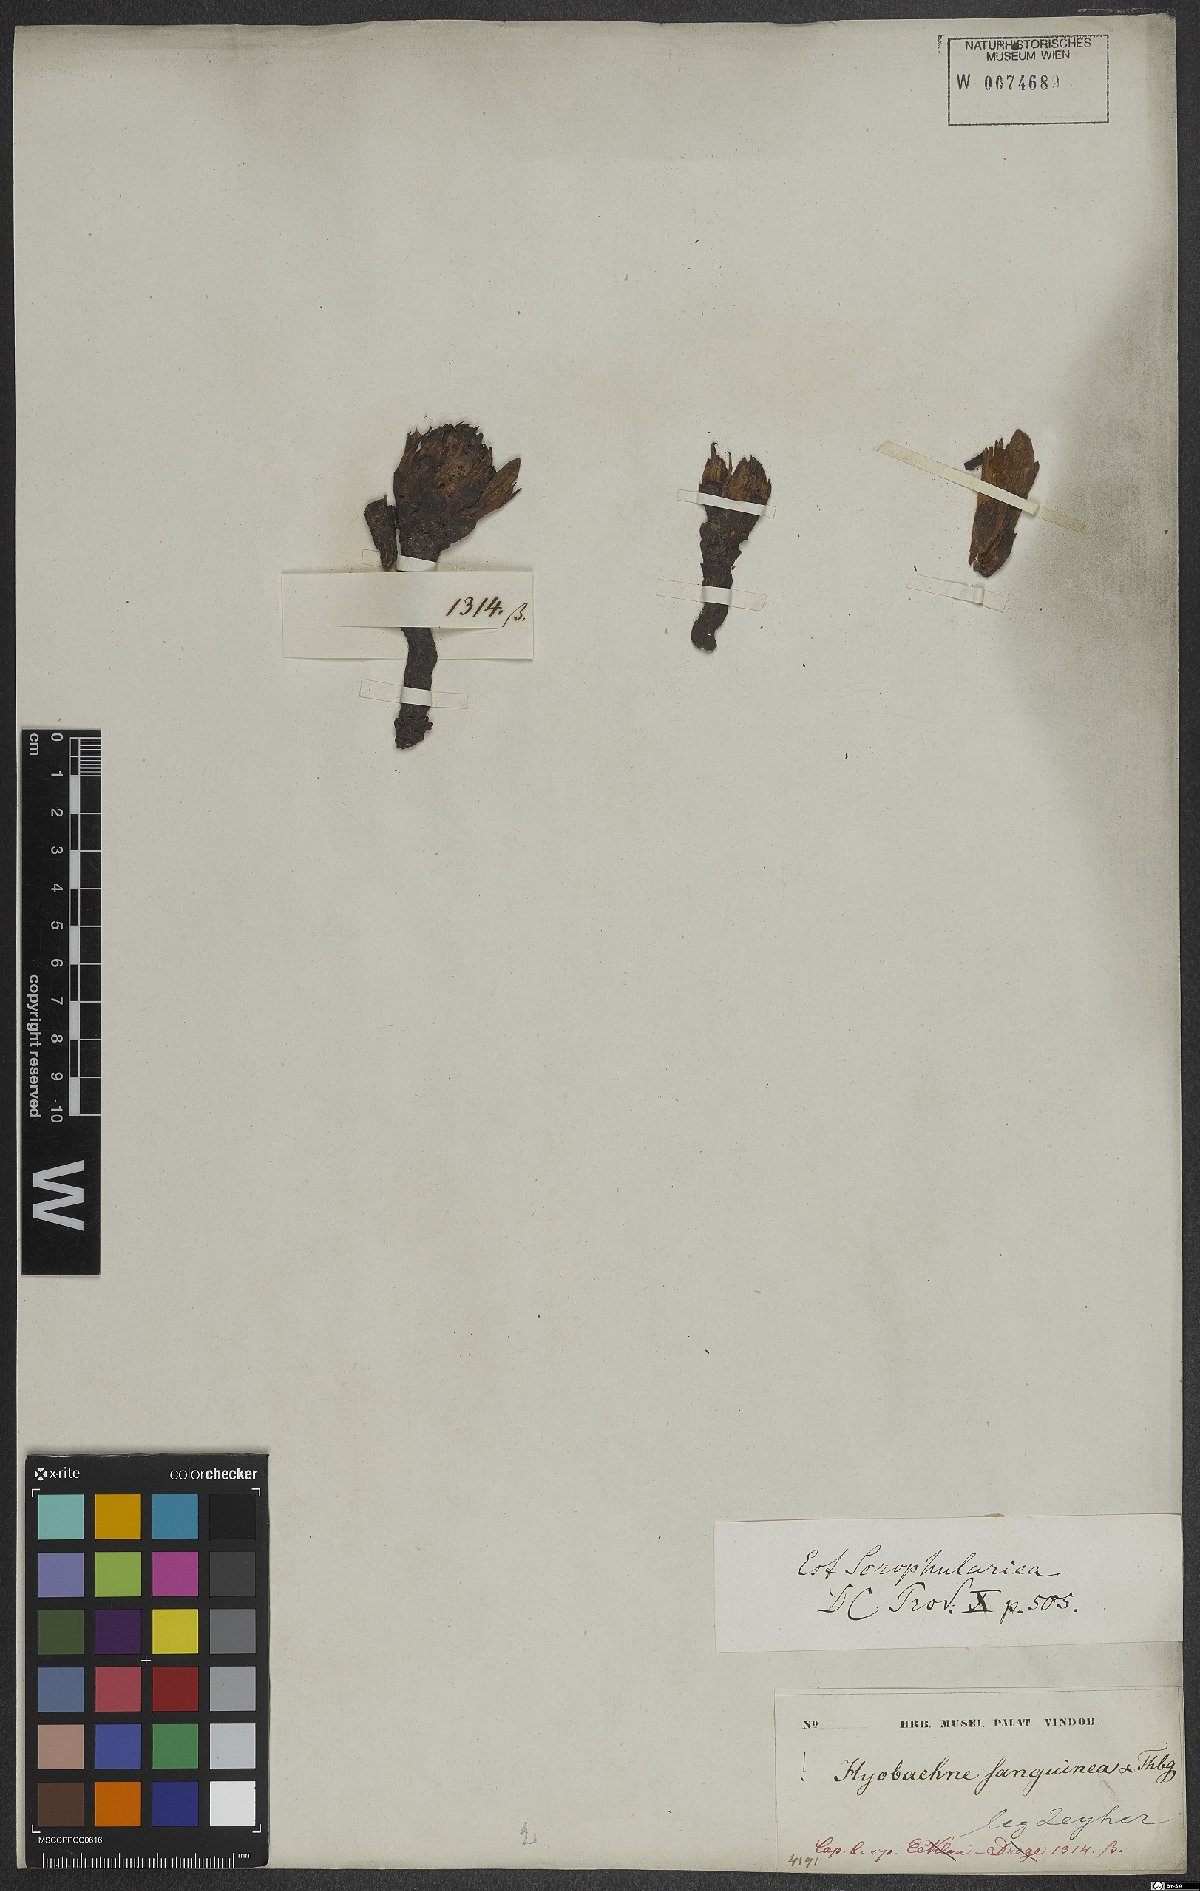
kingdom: Plantae
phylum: Tracheophyta
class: Magnoliopsida
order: Lamiales
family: Orobanchaceae
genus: Hyobanche
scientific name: Hyobanche sanguinea
